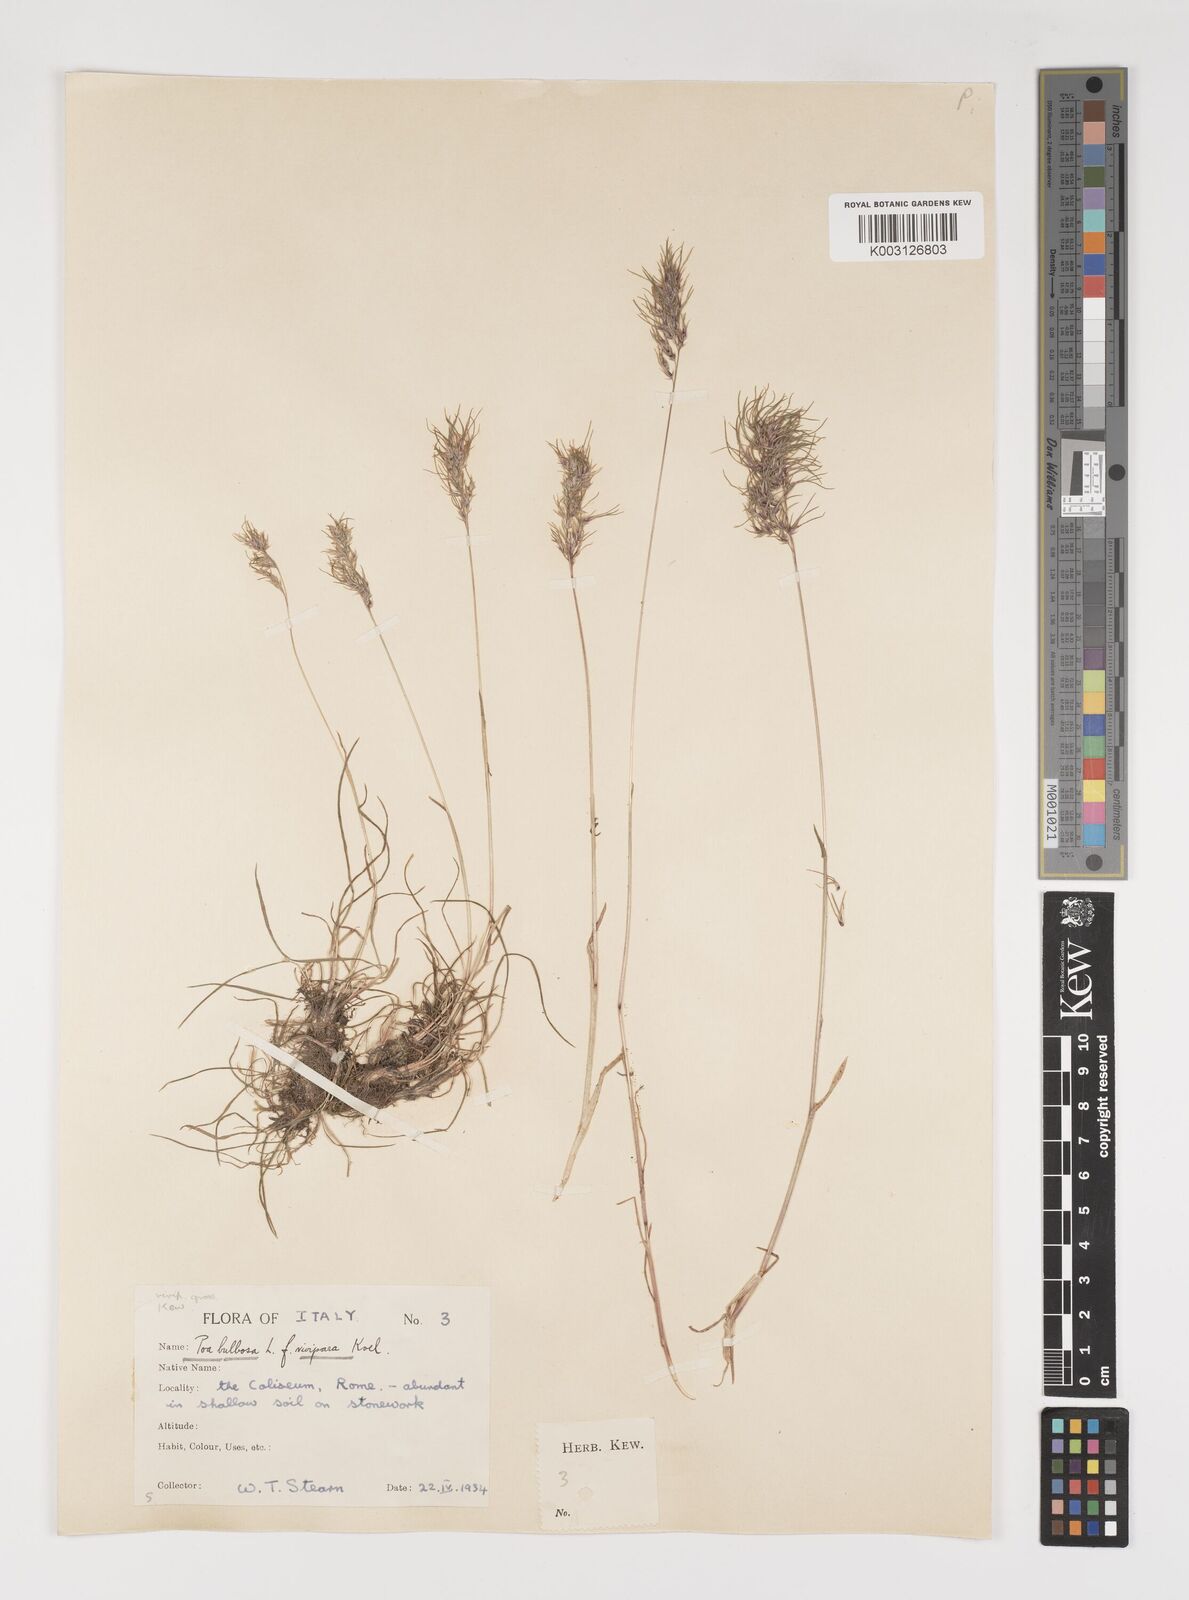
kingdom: Plantae
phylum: Tracheophyta
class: Liliopsida
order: Poales
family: Poaceae
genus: Poa
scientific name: Poa bulbosa
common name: Bulbous bluegrass
